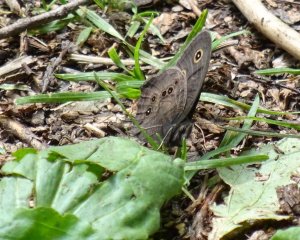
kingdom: Animalia
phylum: Arthropoda
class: Insecta
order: Lepidoptera
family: Nymphalidae
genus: Cercyonis
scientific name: Cercyonis pegala
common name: Common Wood-Nymph
